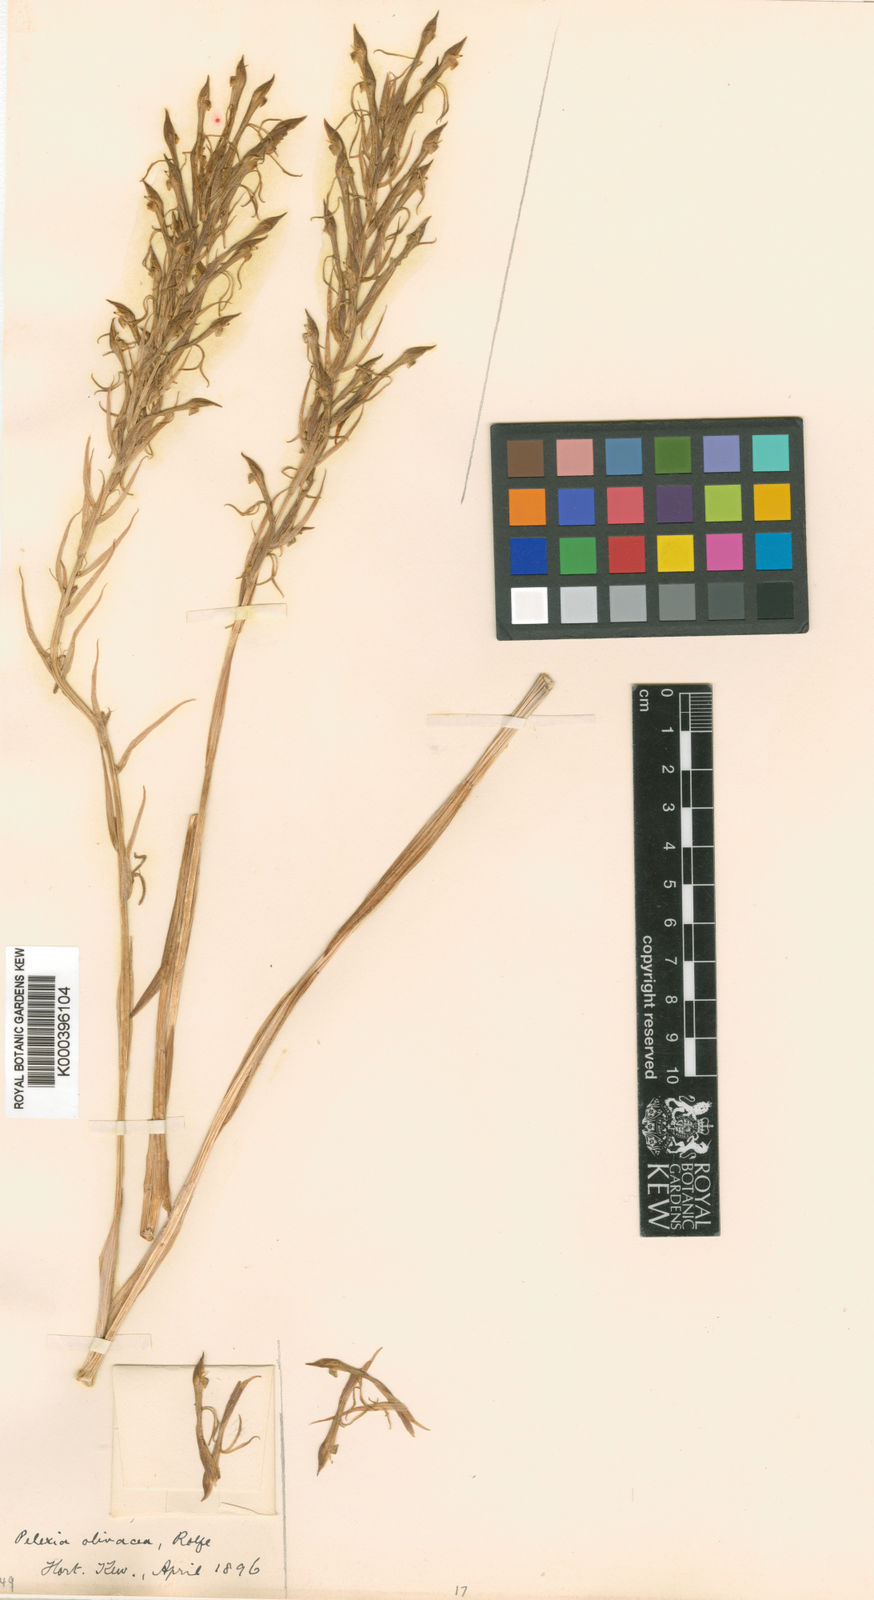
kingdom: Plantae
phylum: Tracheophyta
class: Liliopsida
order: Asparagales
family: Orchidaceae
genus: Pelexia
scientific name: Pelexia olivacea
